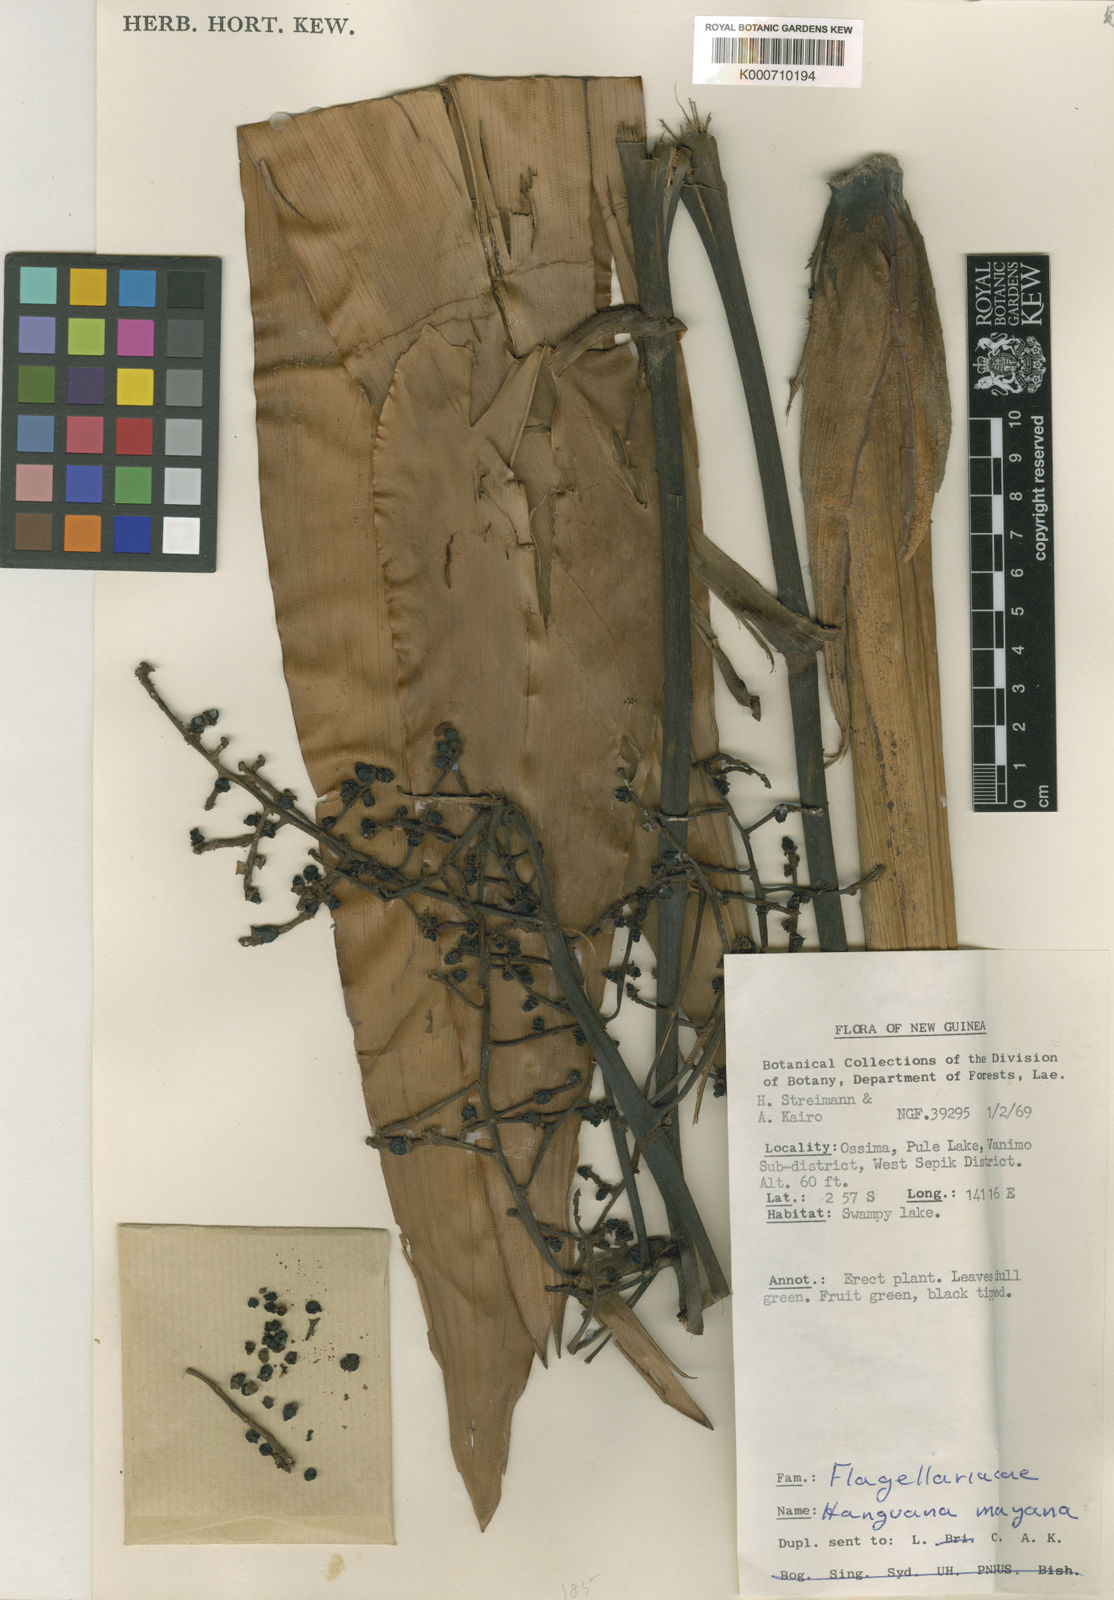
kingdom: Plantae
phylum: Tracheophyta
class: Liliopsida
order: Commelinales
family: Hanguanaceae
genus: Hanguana
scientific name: Hanguana malayana
